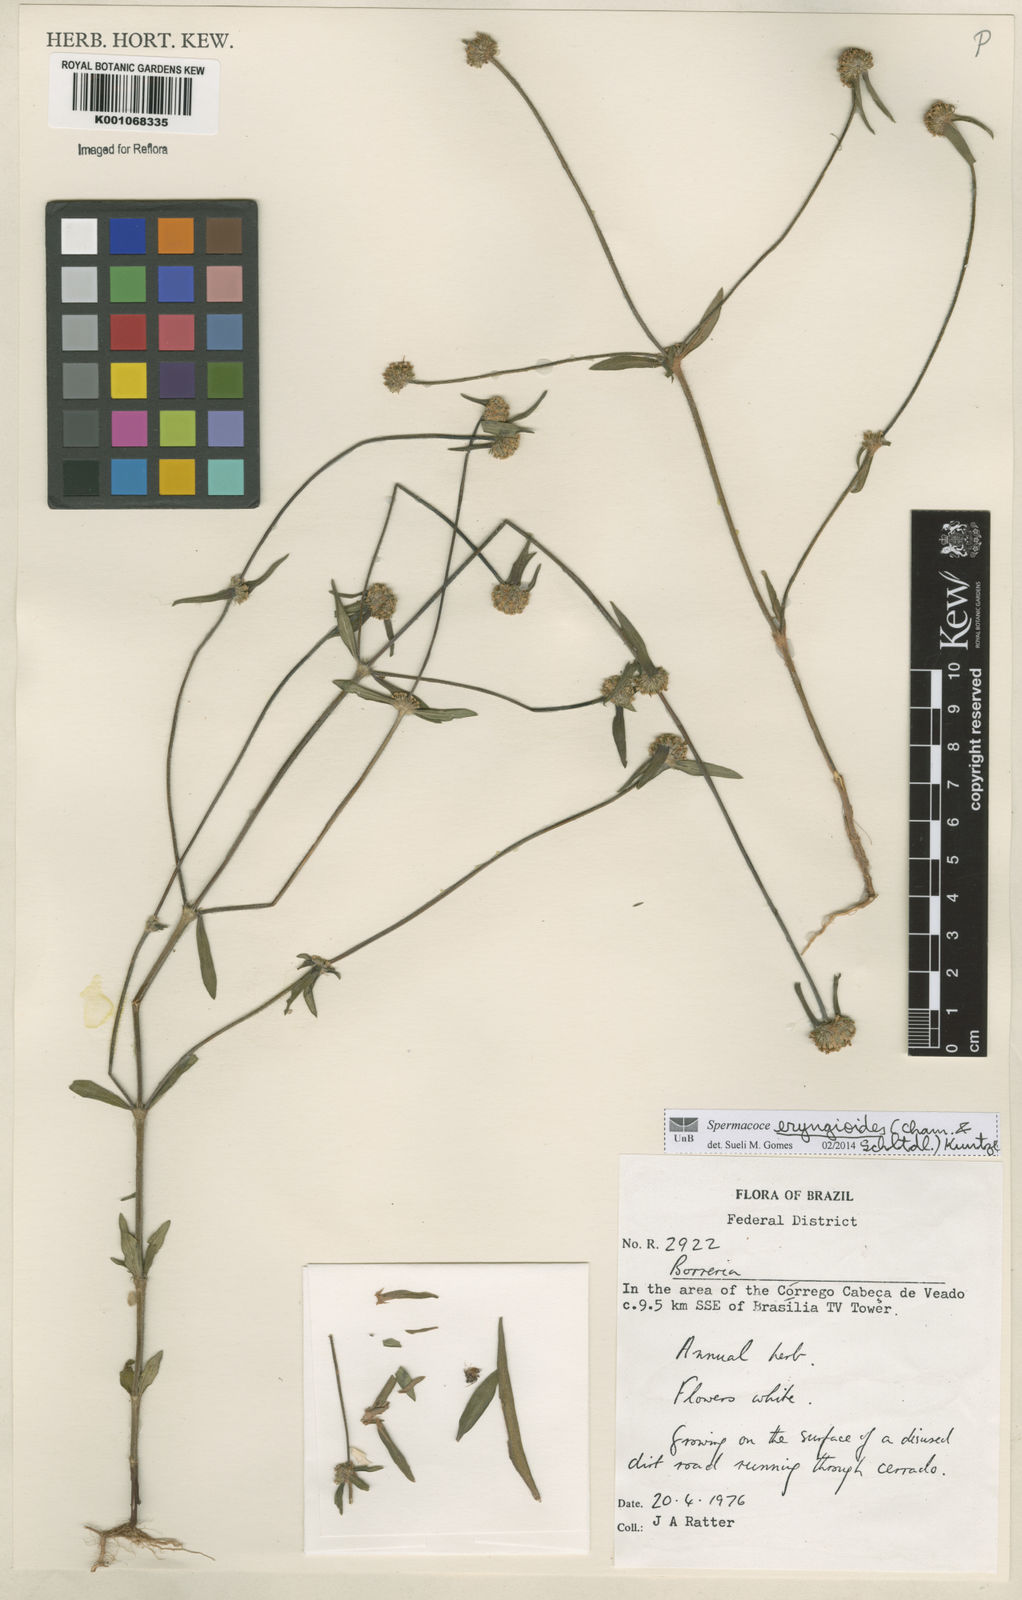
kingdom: Plantae
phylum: Tracheophyta
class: Magnoliopsida
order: Gentianales
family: Rubiaceae
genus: Spermacoce
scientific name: Spermacoce eryngioides
